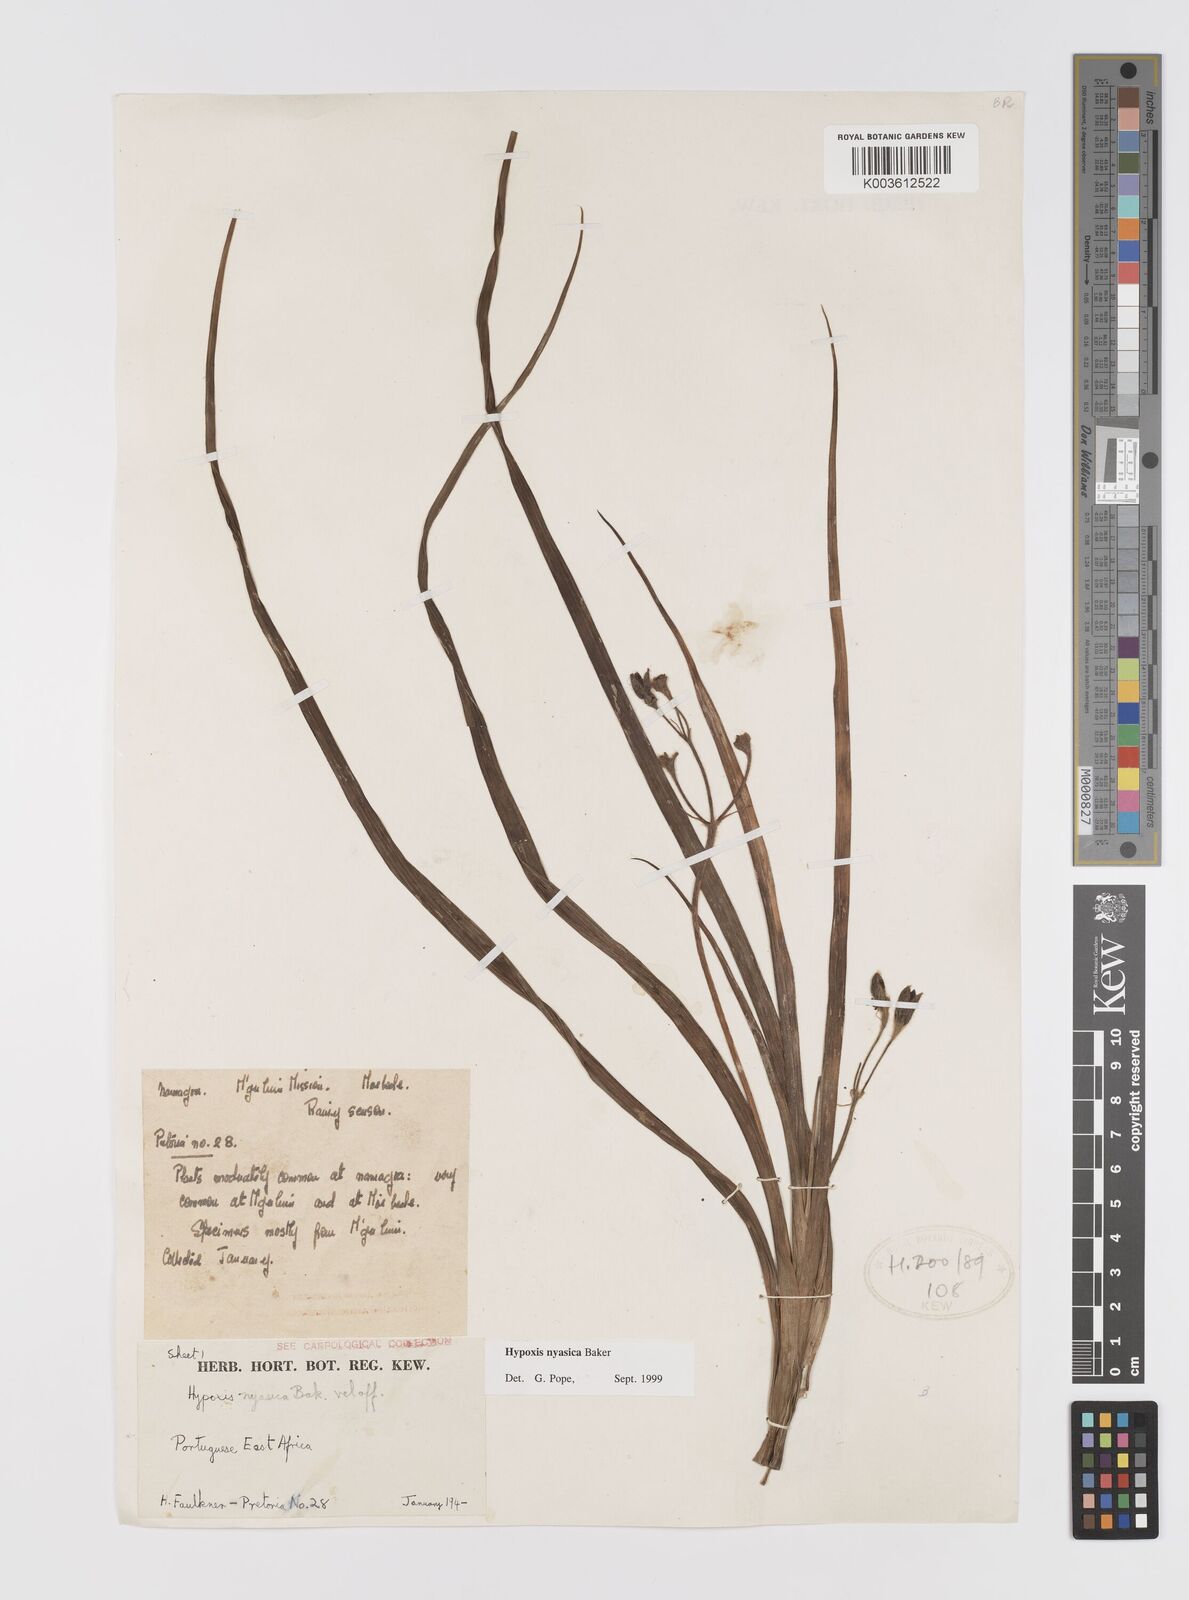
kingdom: Plantae
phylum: Tracheophyta
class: Liliopsida
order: Asparagales
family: Hypoxidaceae
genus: Hypoxis
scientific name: Hypoxis nyasica
